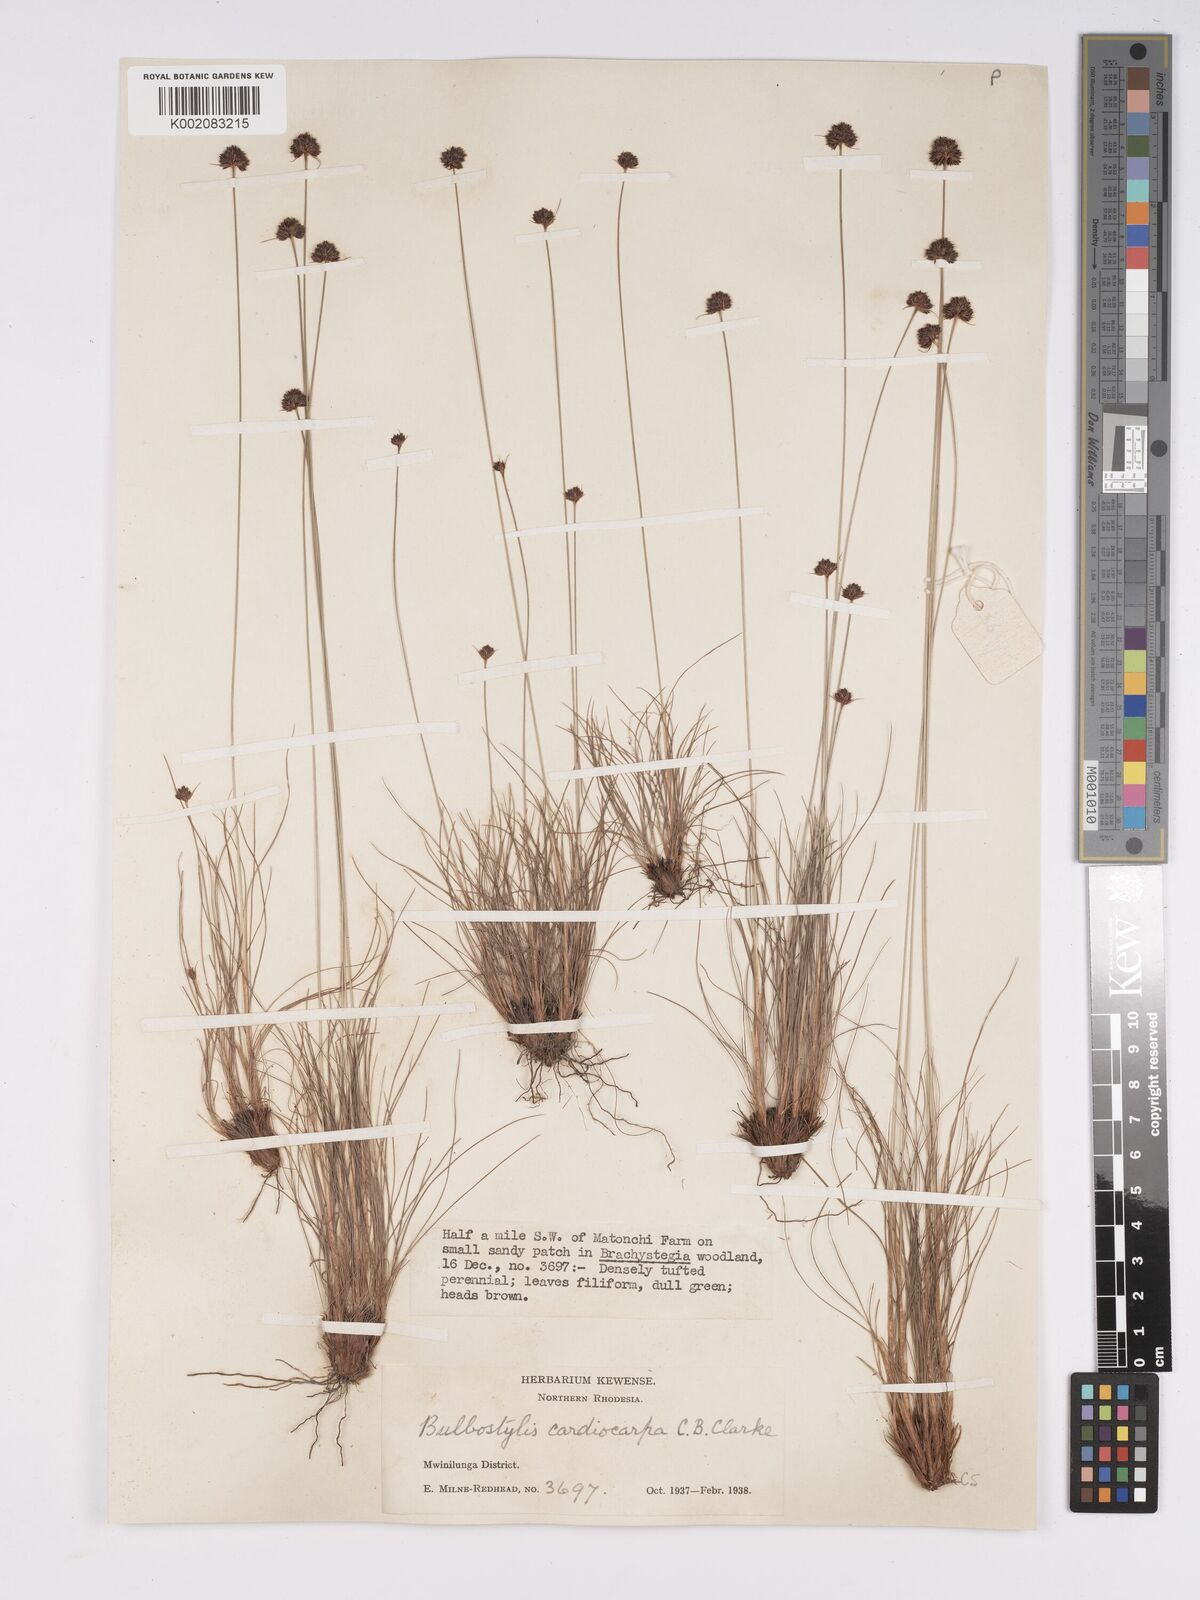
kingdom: Plantae
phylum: Tracheophyta
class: Liliopsida
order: Poales
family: Cyperaceae
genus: Bulbostylis
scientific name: Bulbostylis filamentosa
